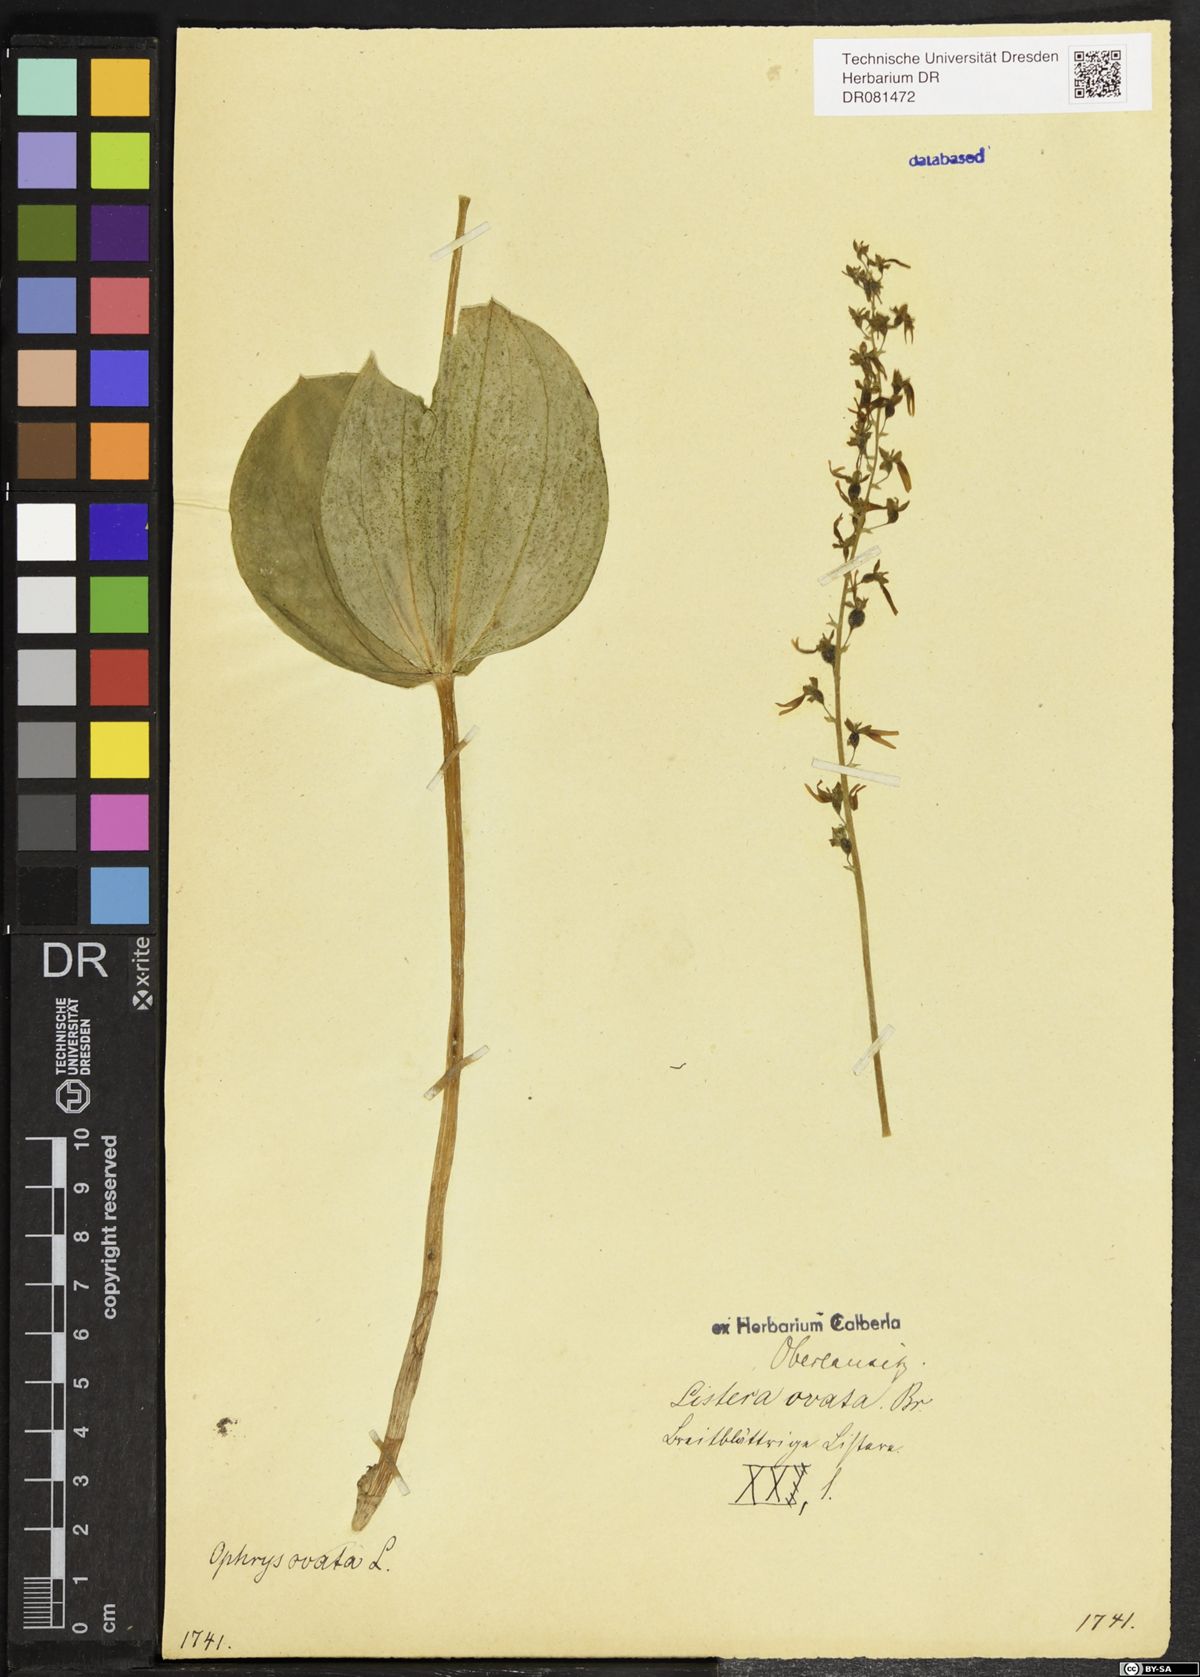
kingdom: Plantae
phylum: Tracheophyta
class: Liliopsida
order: Asparagales
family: Orchidaceae
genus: Neottia
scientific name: Neottia ovata
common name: Common twayblade
